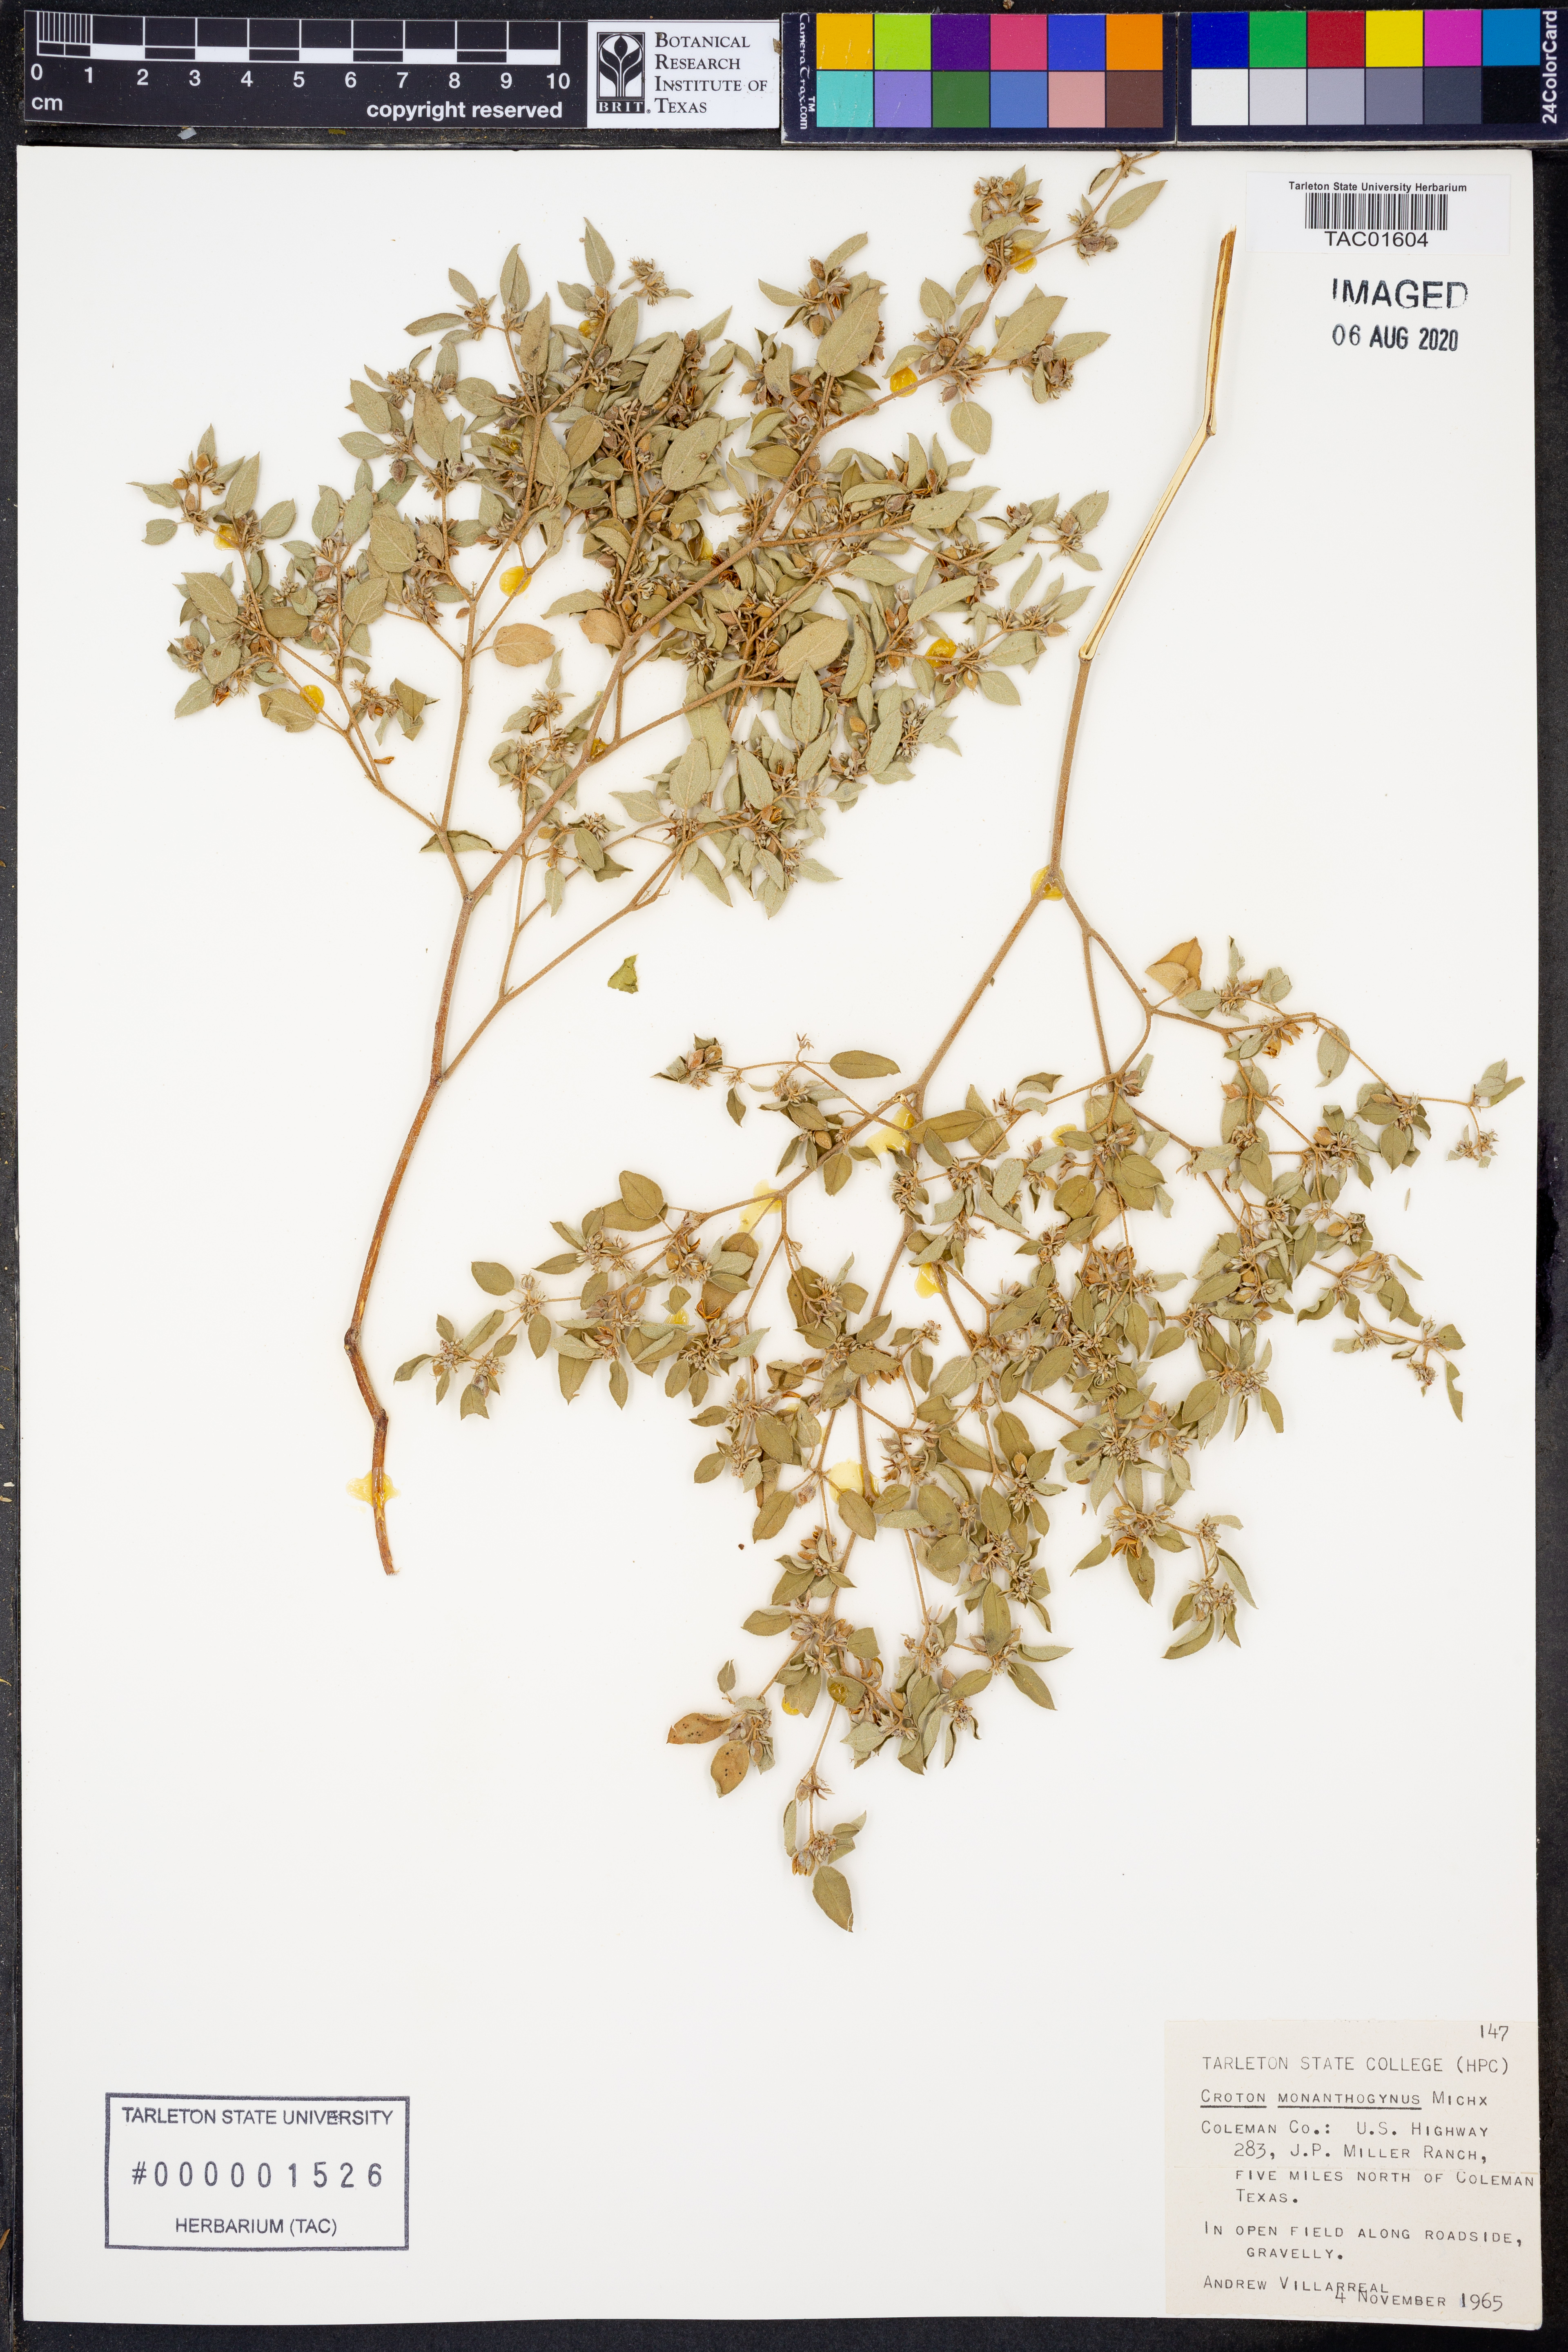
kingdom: Plantae
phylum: Tracheophyta
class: Magnoliopsida
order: Malpighiales
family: Euphorbiaceae
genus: Croton
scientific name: Croton monanthogynus
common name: One-seed croton
